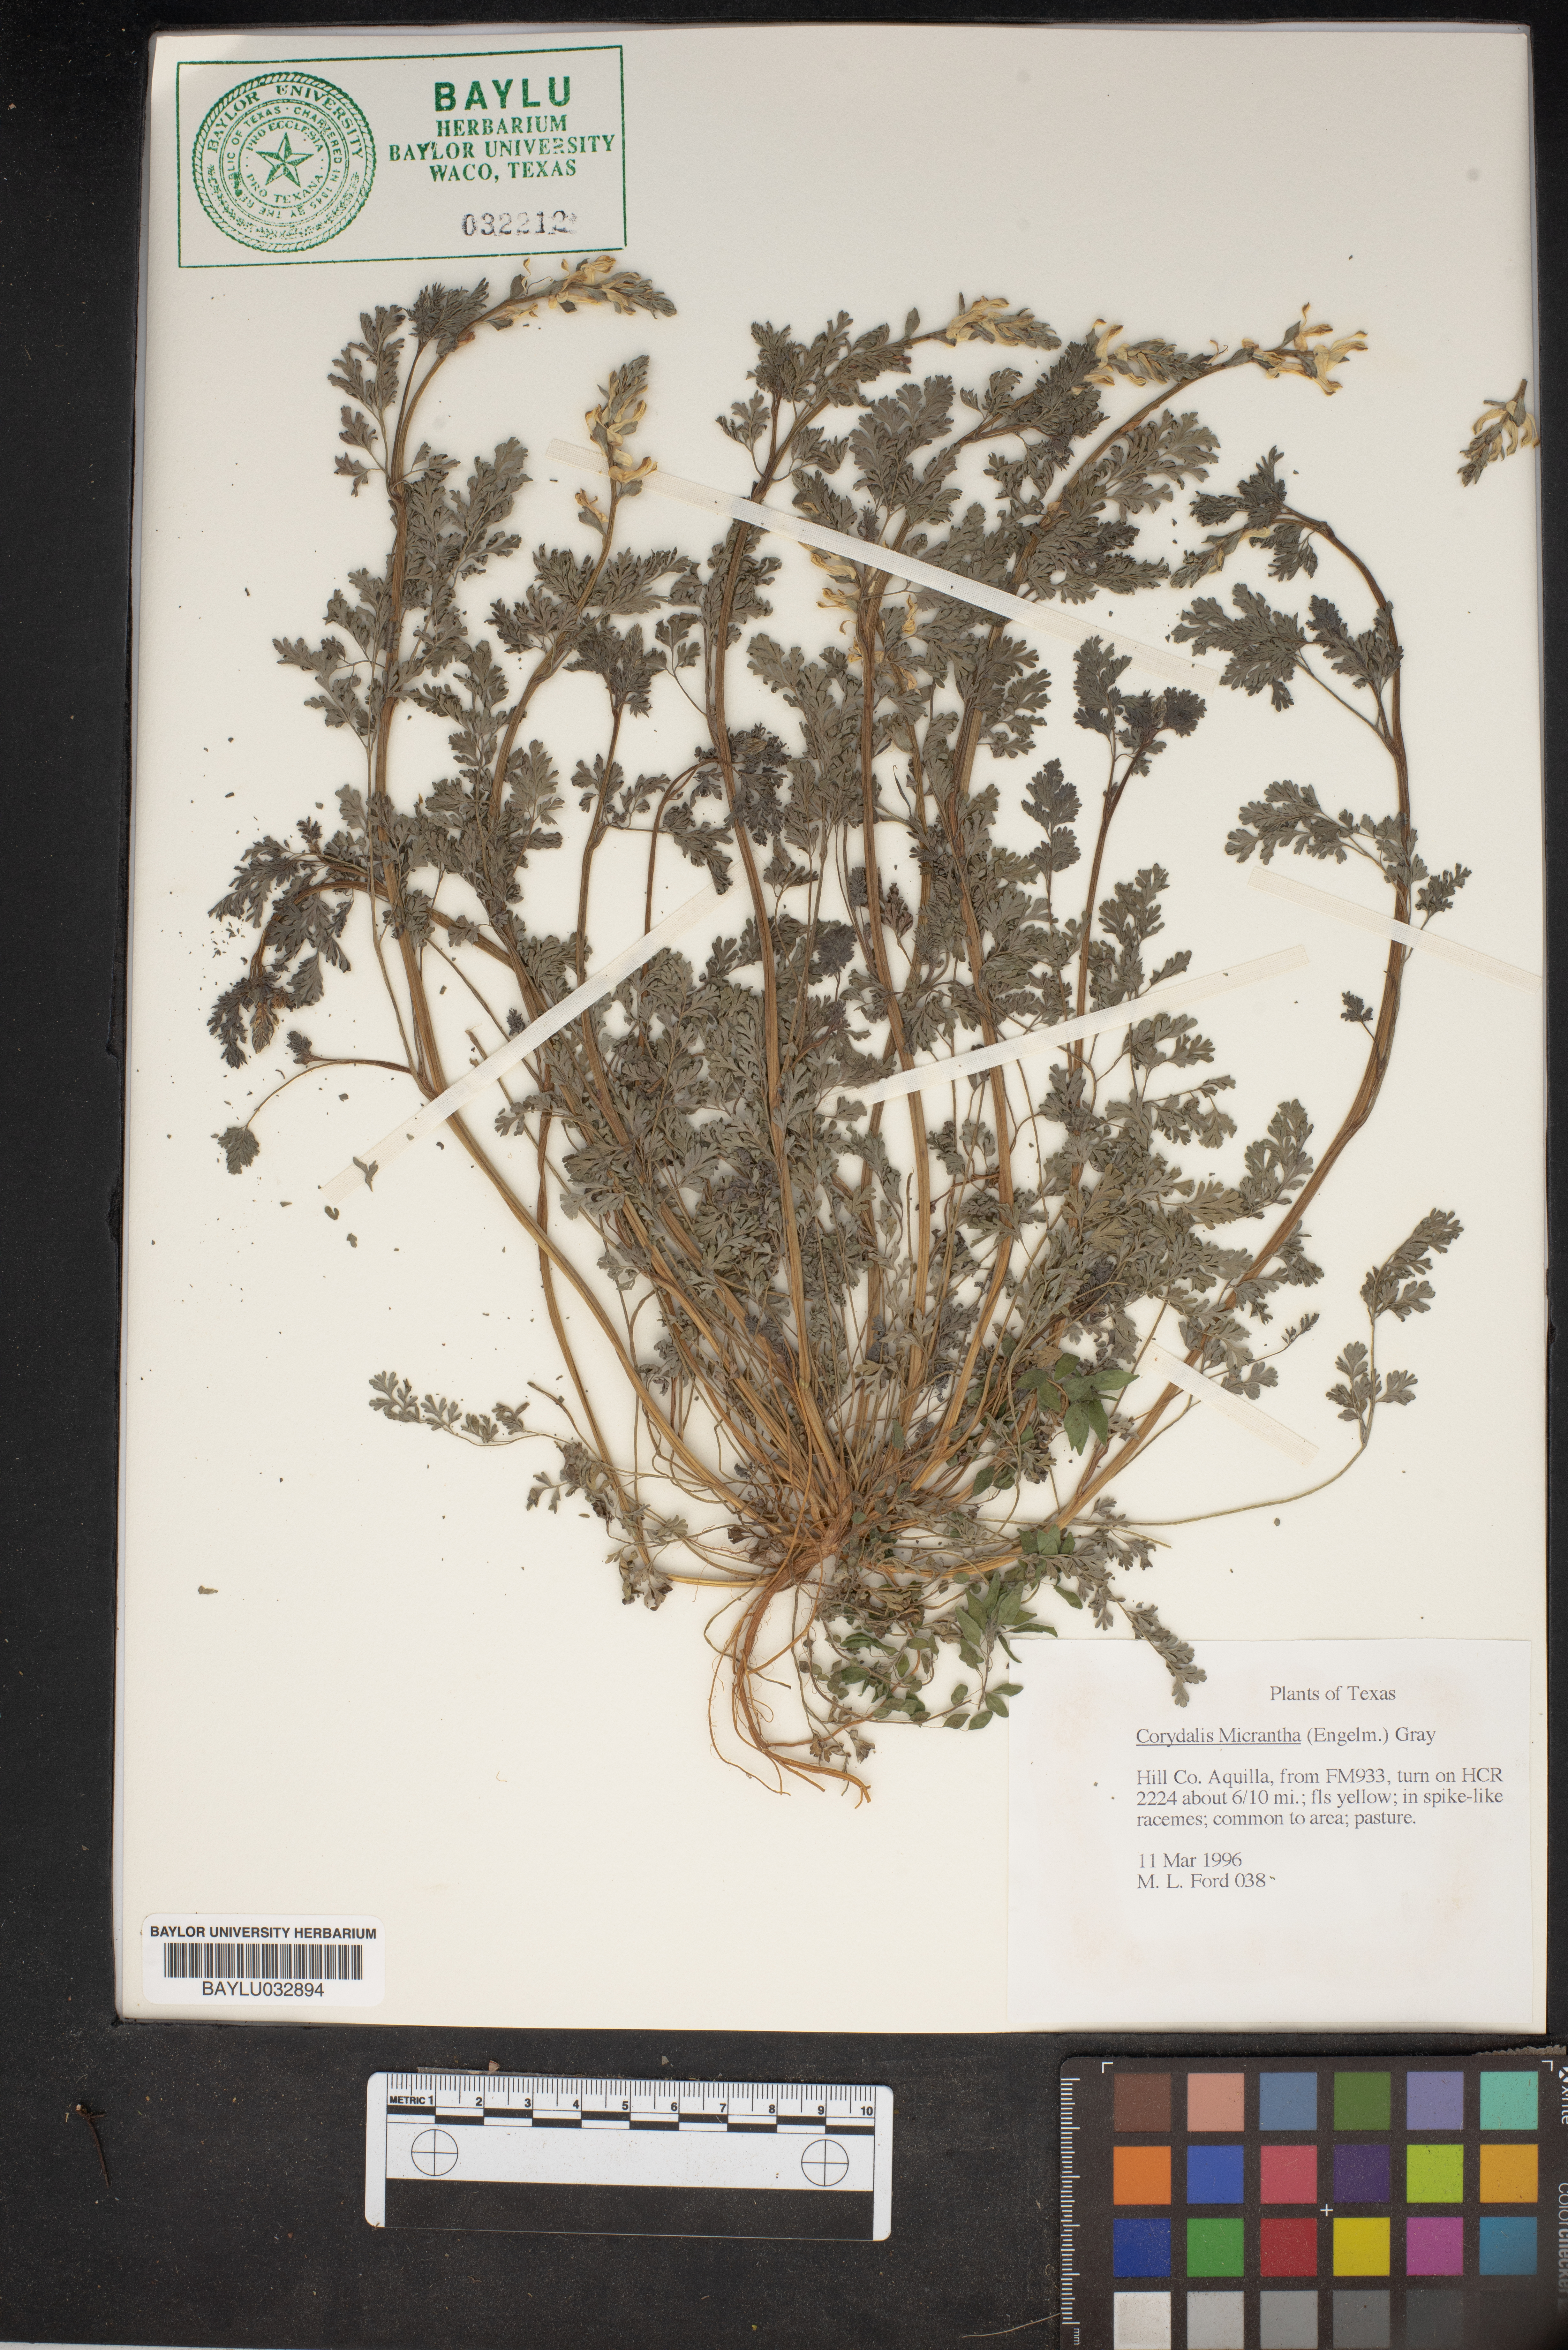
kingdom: Plantae
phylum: Tracheophyta
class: Magnoliopsida
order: Ranunculales
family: Papaveraceae
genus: Corydalis
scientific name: Corydalis micrantha
